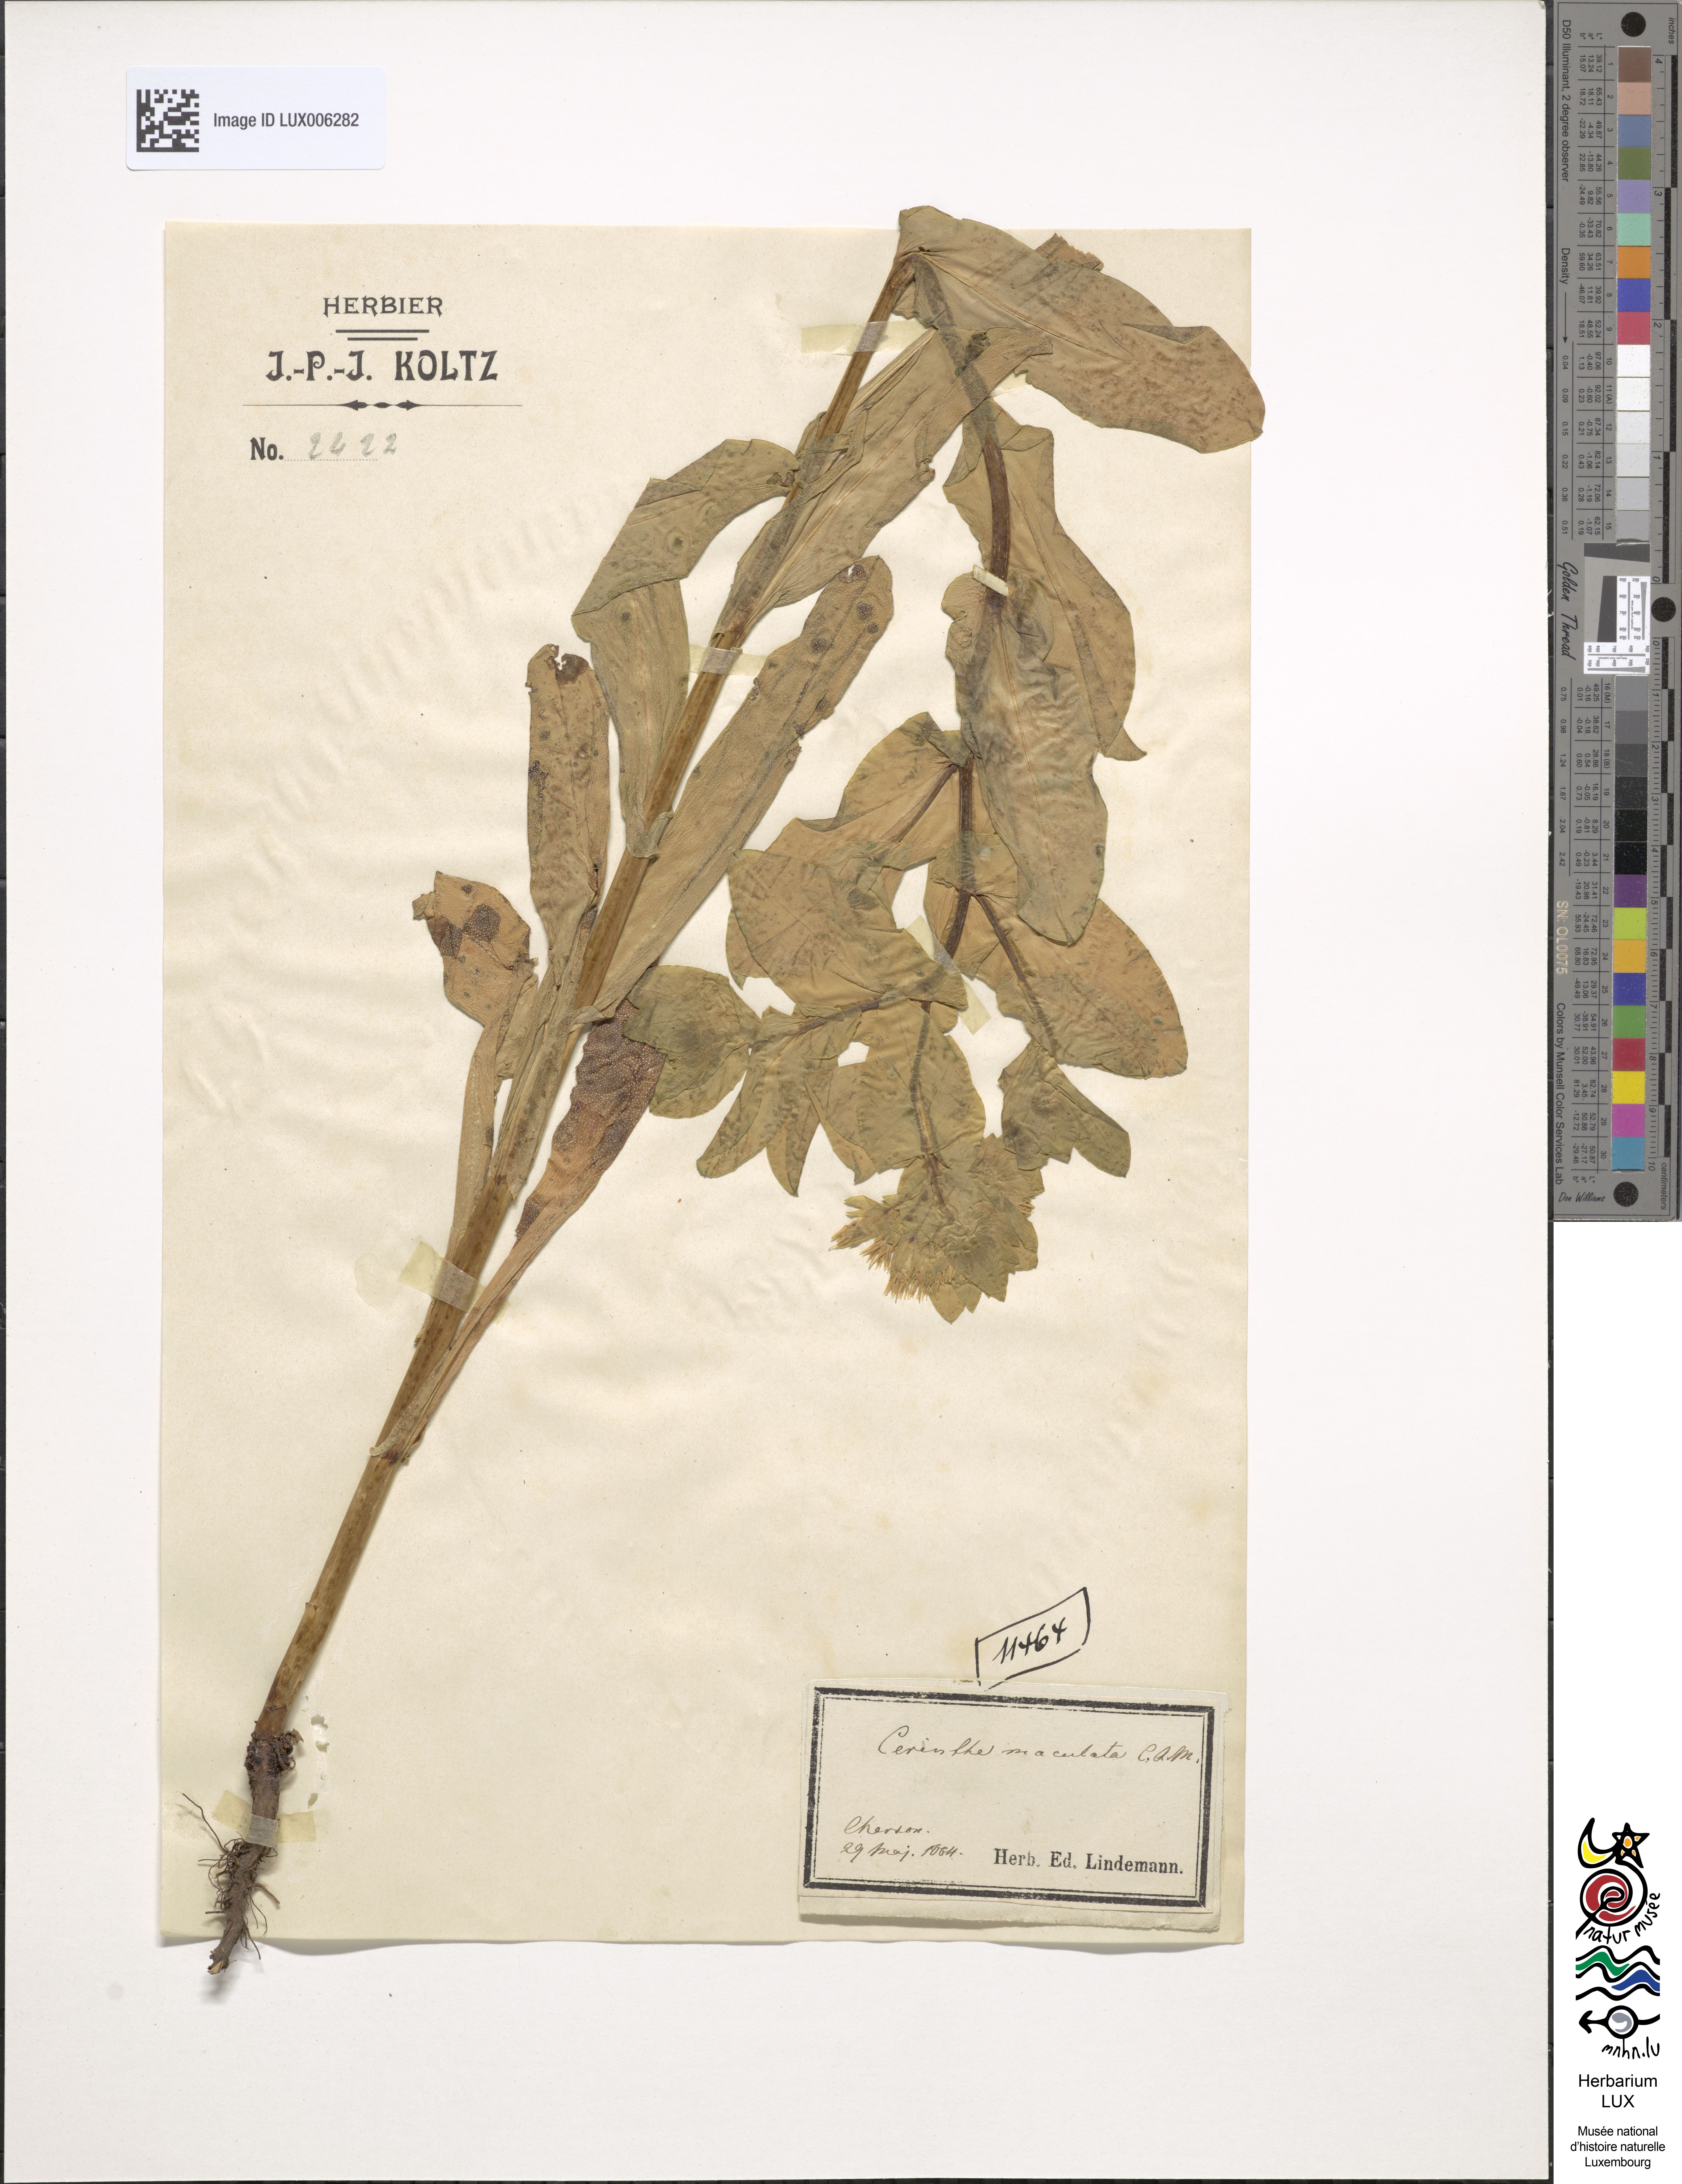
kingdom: Plantae
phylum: Tracheophyta
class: Magnoliopsida
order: Boraginales
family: Boraginaceae
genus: Cerinthe
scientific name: Cerinthe
